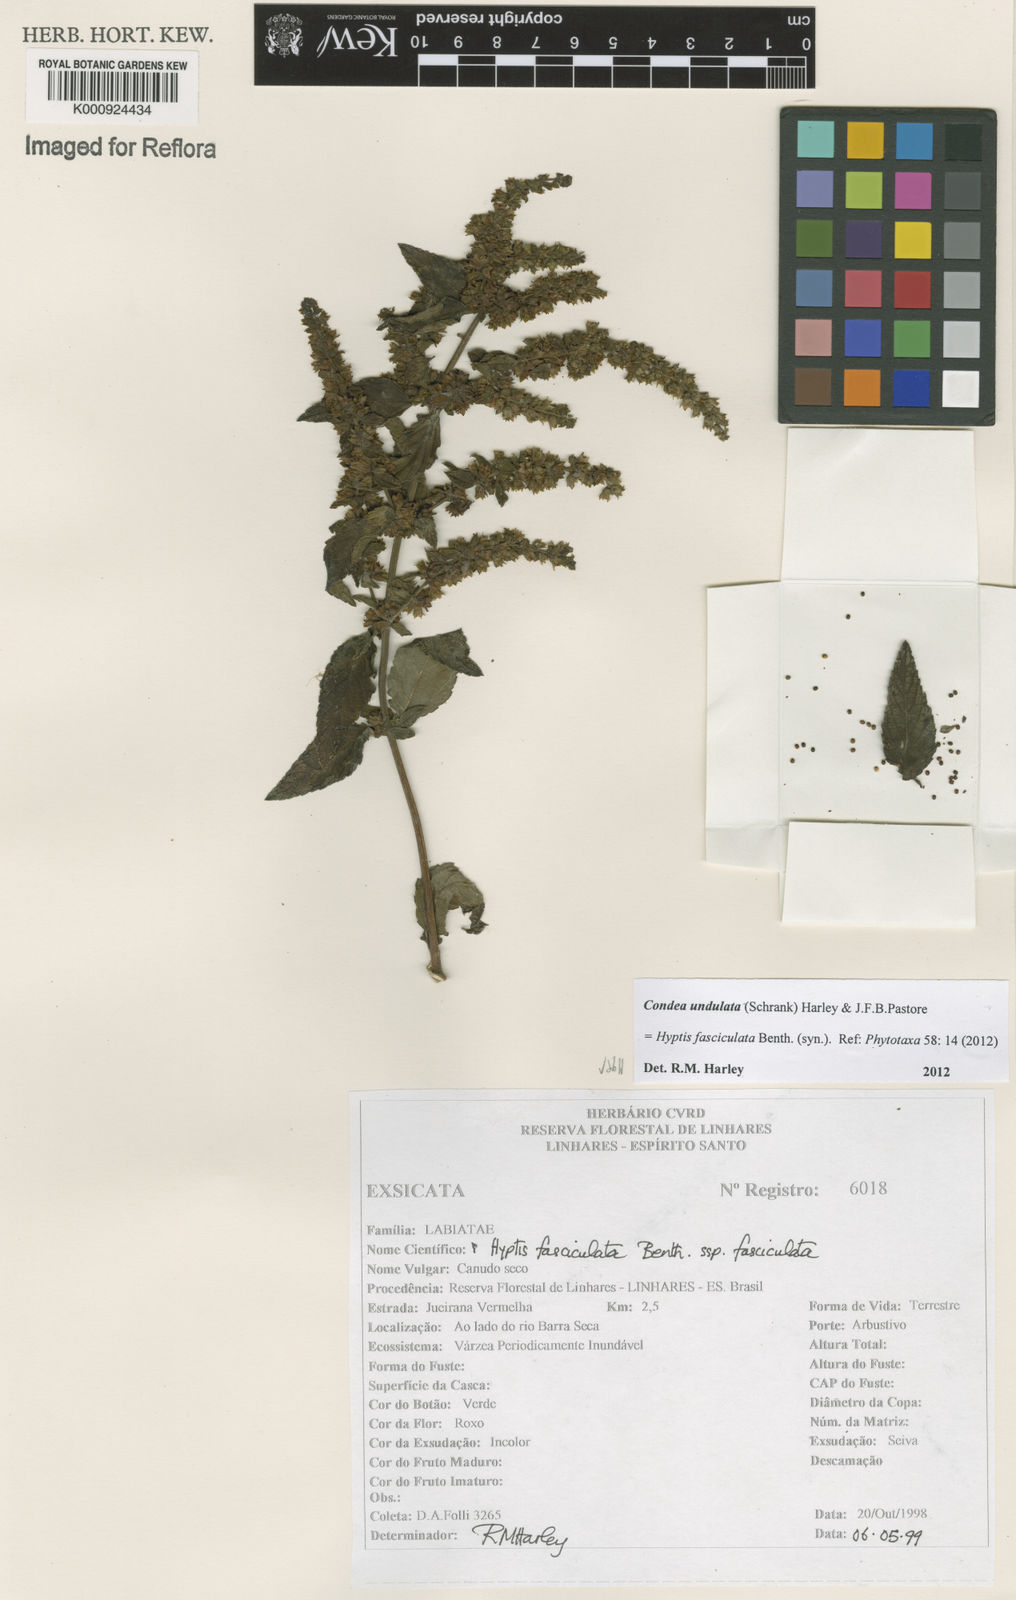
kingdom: Plantae
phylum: Tracheophyta
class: Magnoliopsida
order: Lamiales
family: Lamiaceae
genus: Condea
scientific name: Condea undulata
